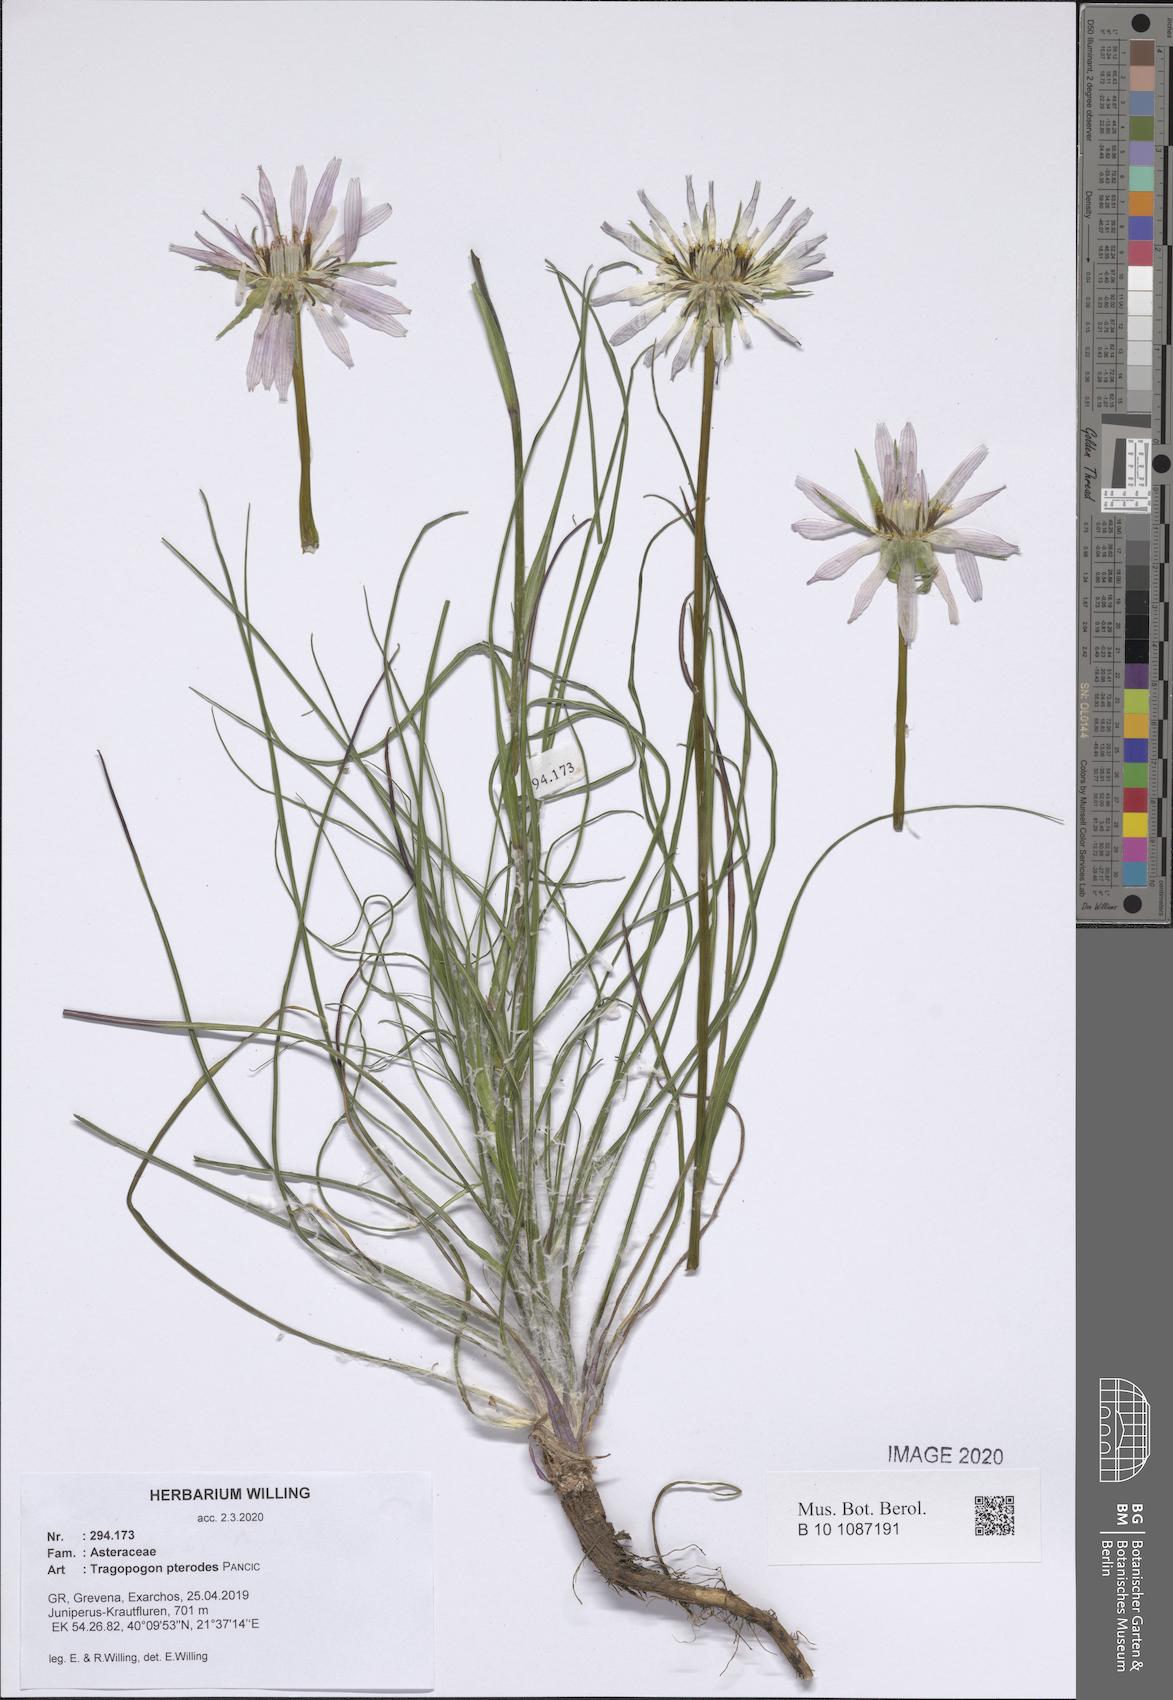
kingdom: Plantae
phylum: Tracheophyta
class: Magnoliopsida
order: Asterales
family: Asteraceae
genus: Tragopogon
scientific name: Tragopogon pterodes
